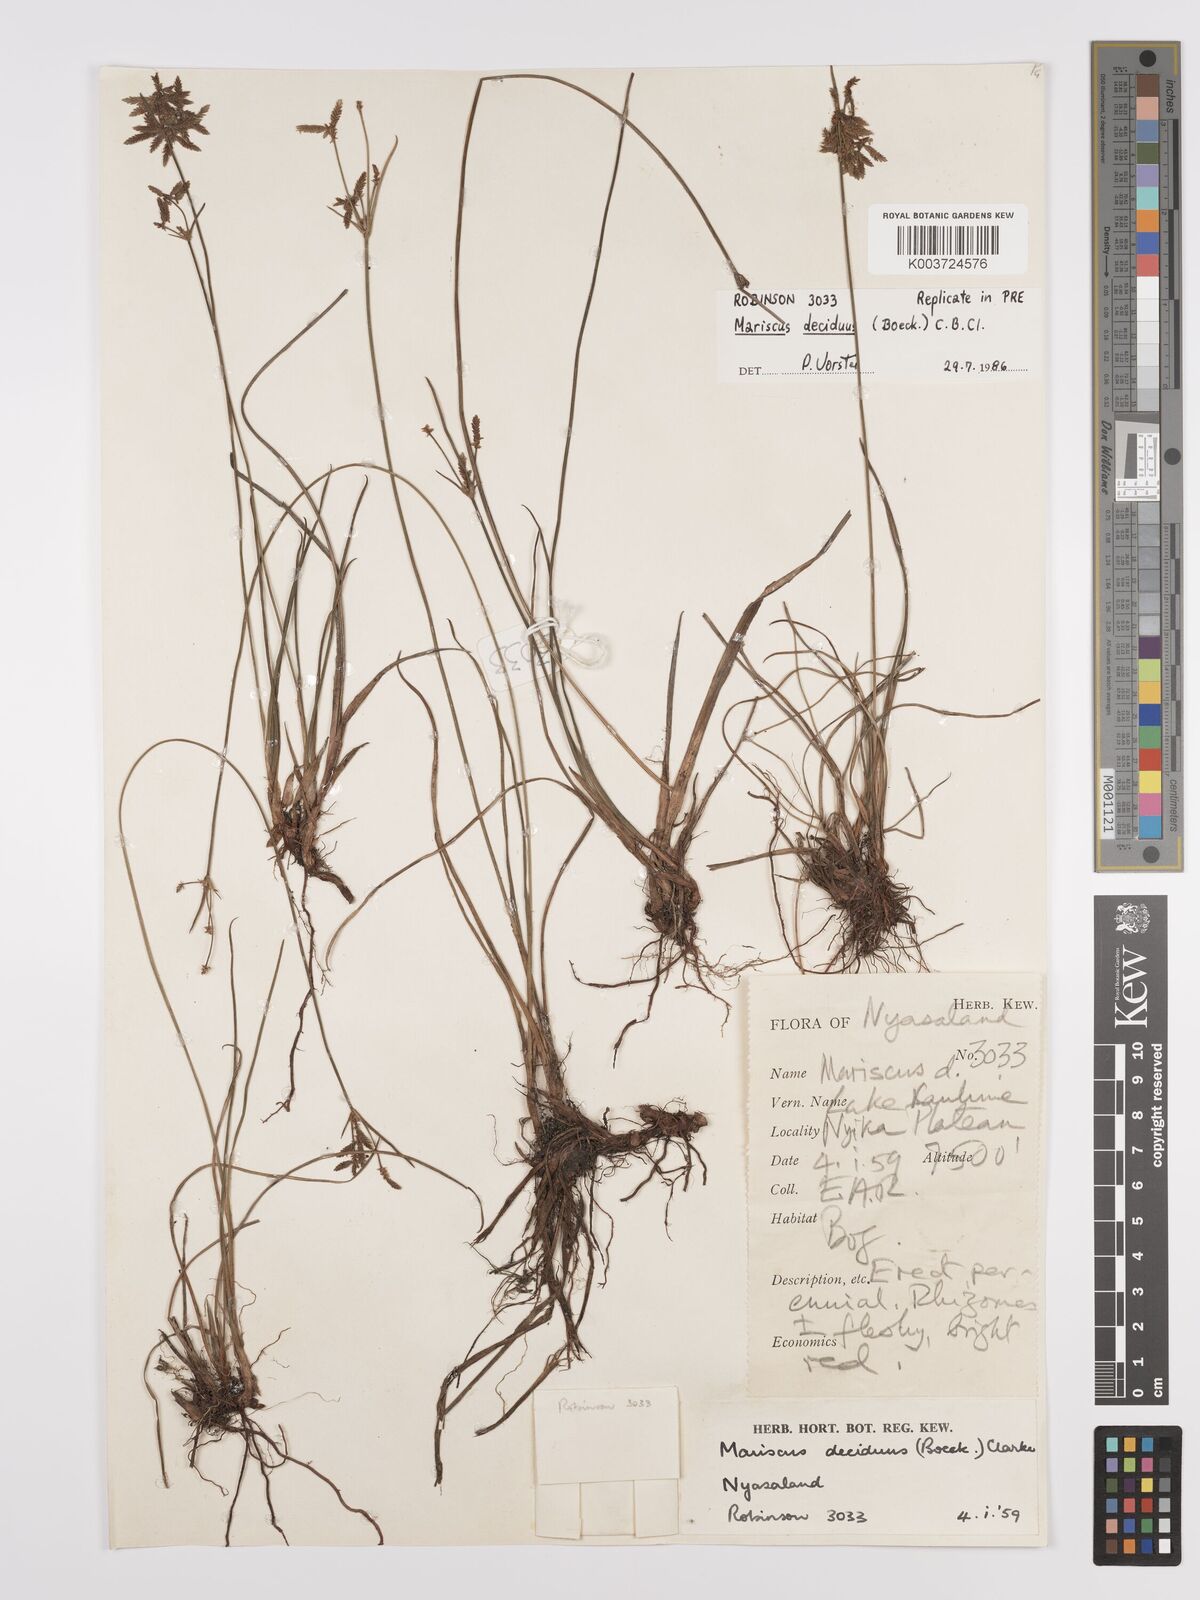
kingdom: Plantae
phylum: Tracheophyta
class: Liliopsida
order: Poales
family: Cyperaceae
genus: Cyperus
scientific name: Cyperus deciduus
